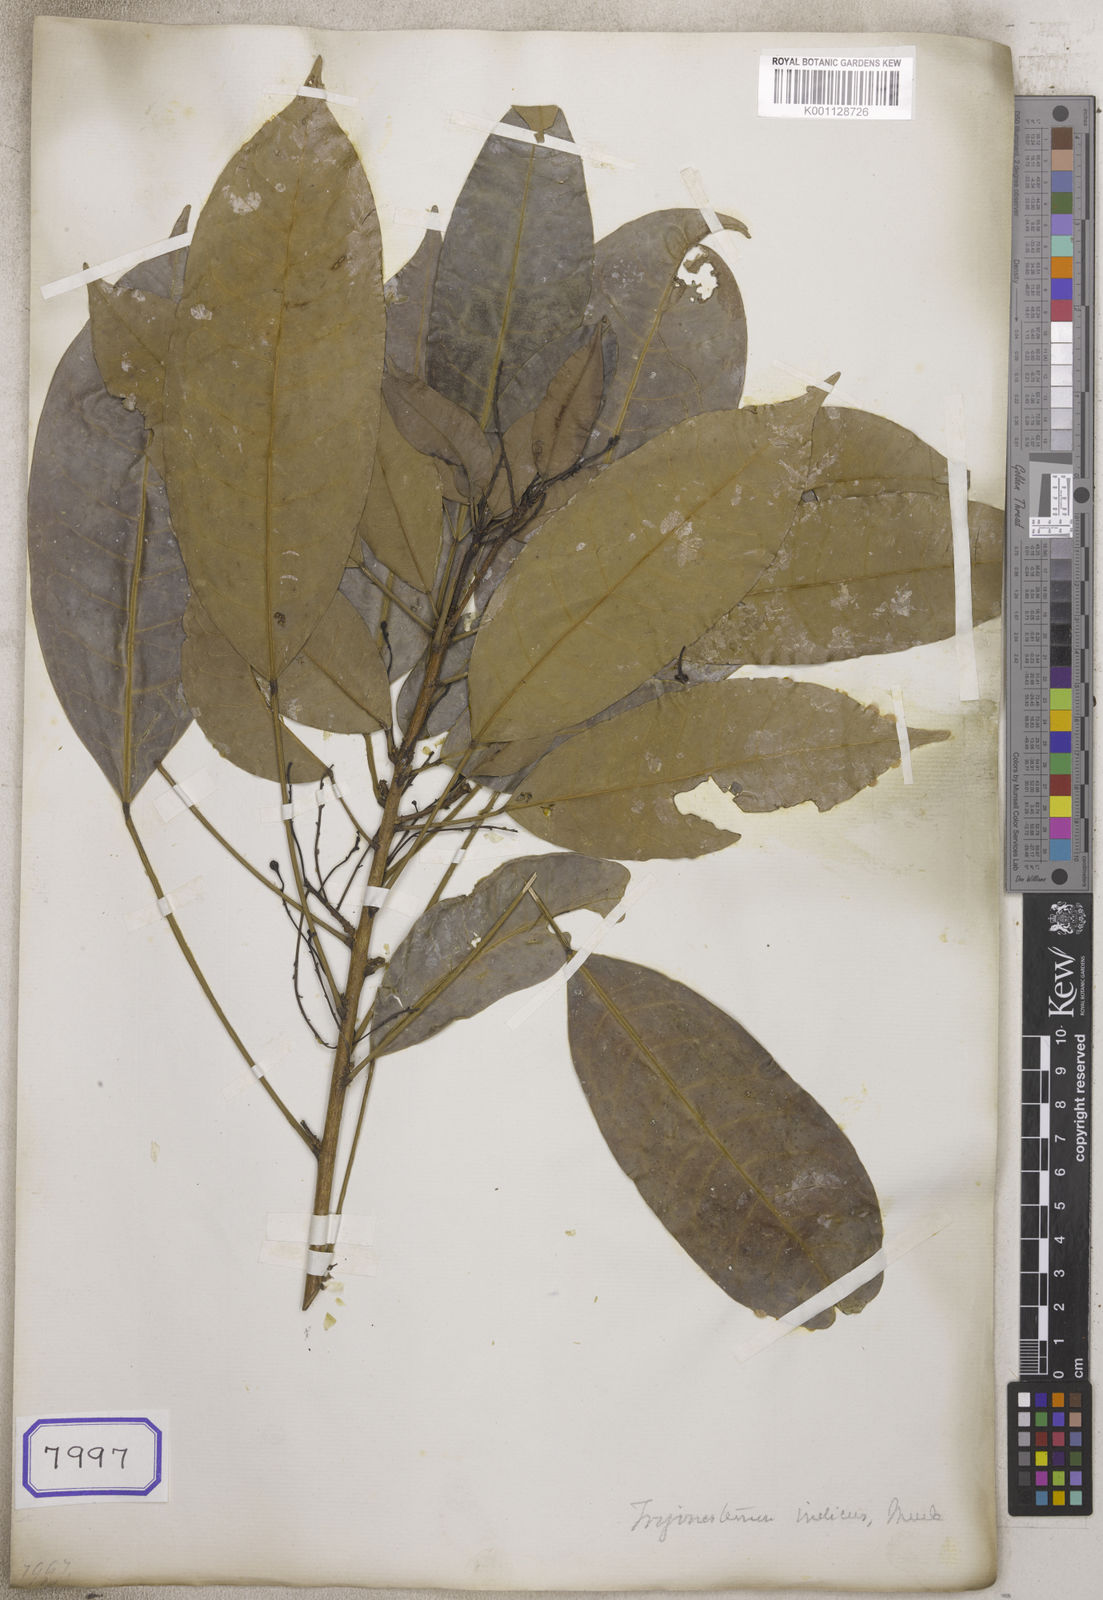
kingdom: Plantae
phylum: Tracheophyta
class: Magnoliopsida
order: Malpighiales
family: Euphorbiaceae
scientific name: Euphorbiaceae
